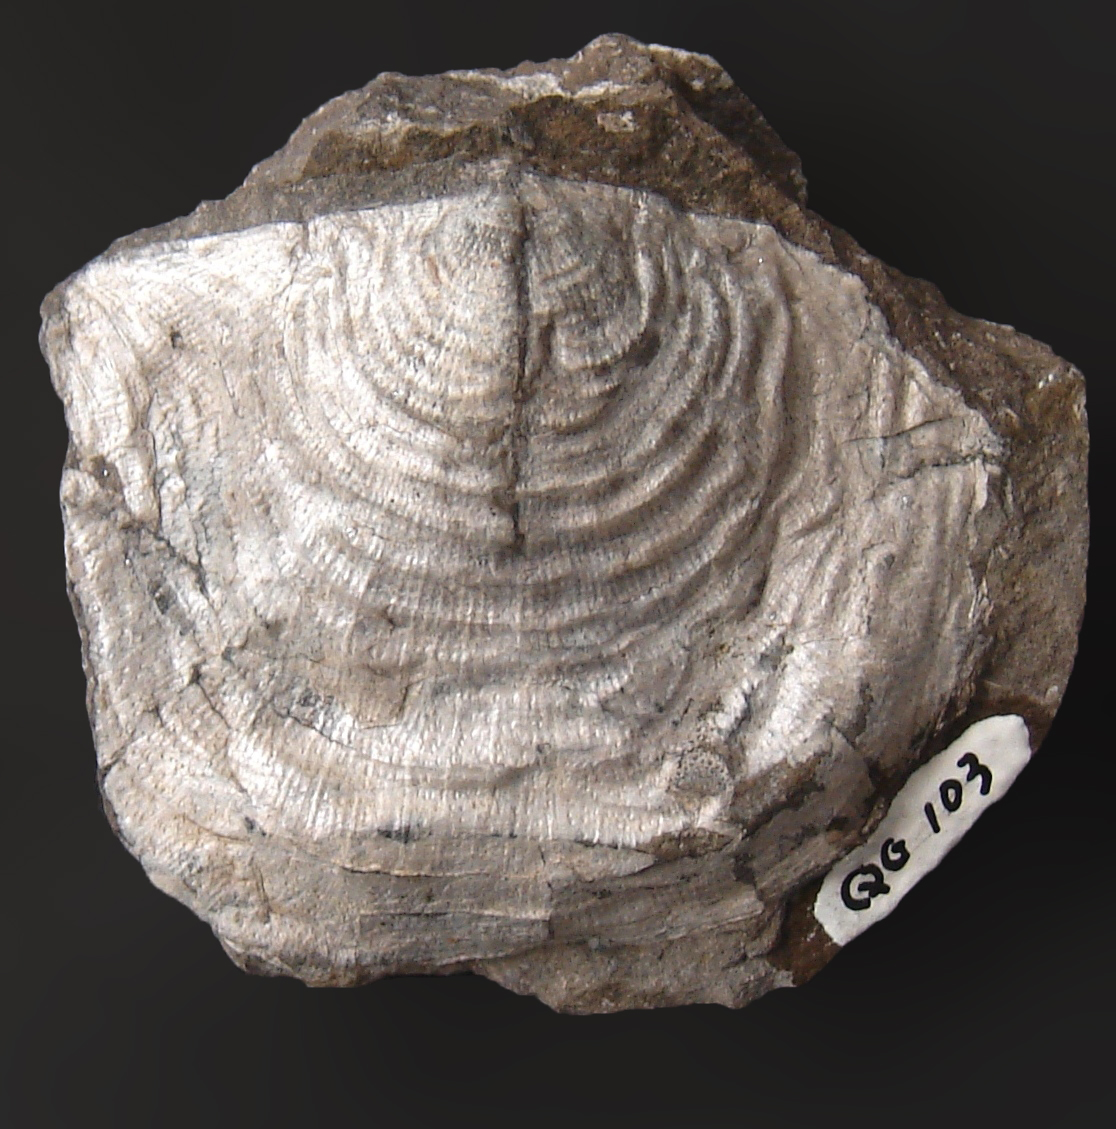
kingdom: Animalia
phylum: Brachiopoda
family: Strophomenidae
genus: Strophomena
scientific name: Strophomena depressa
